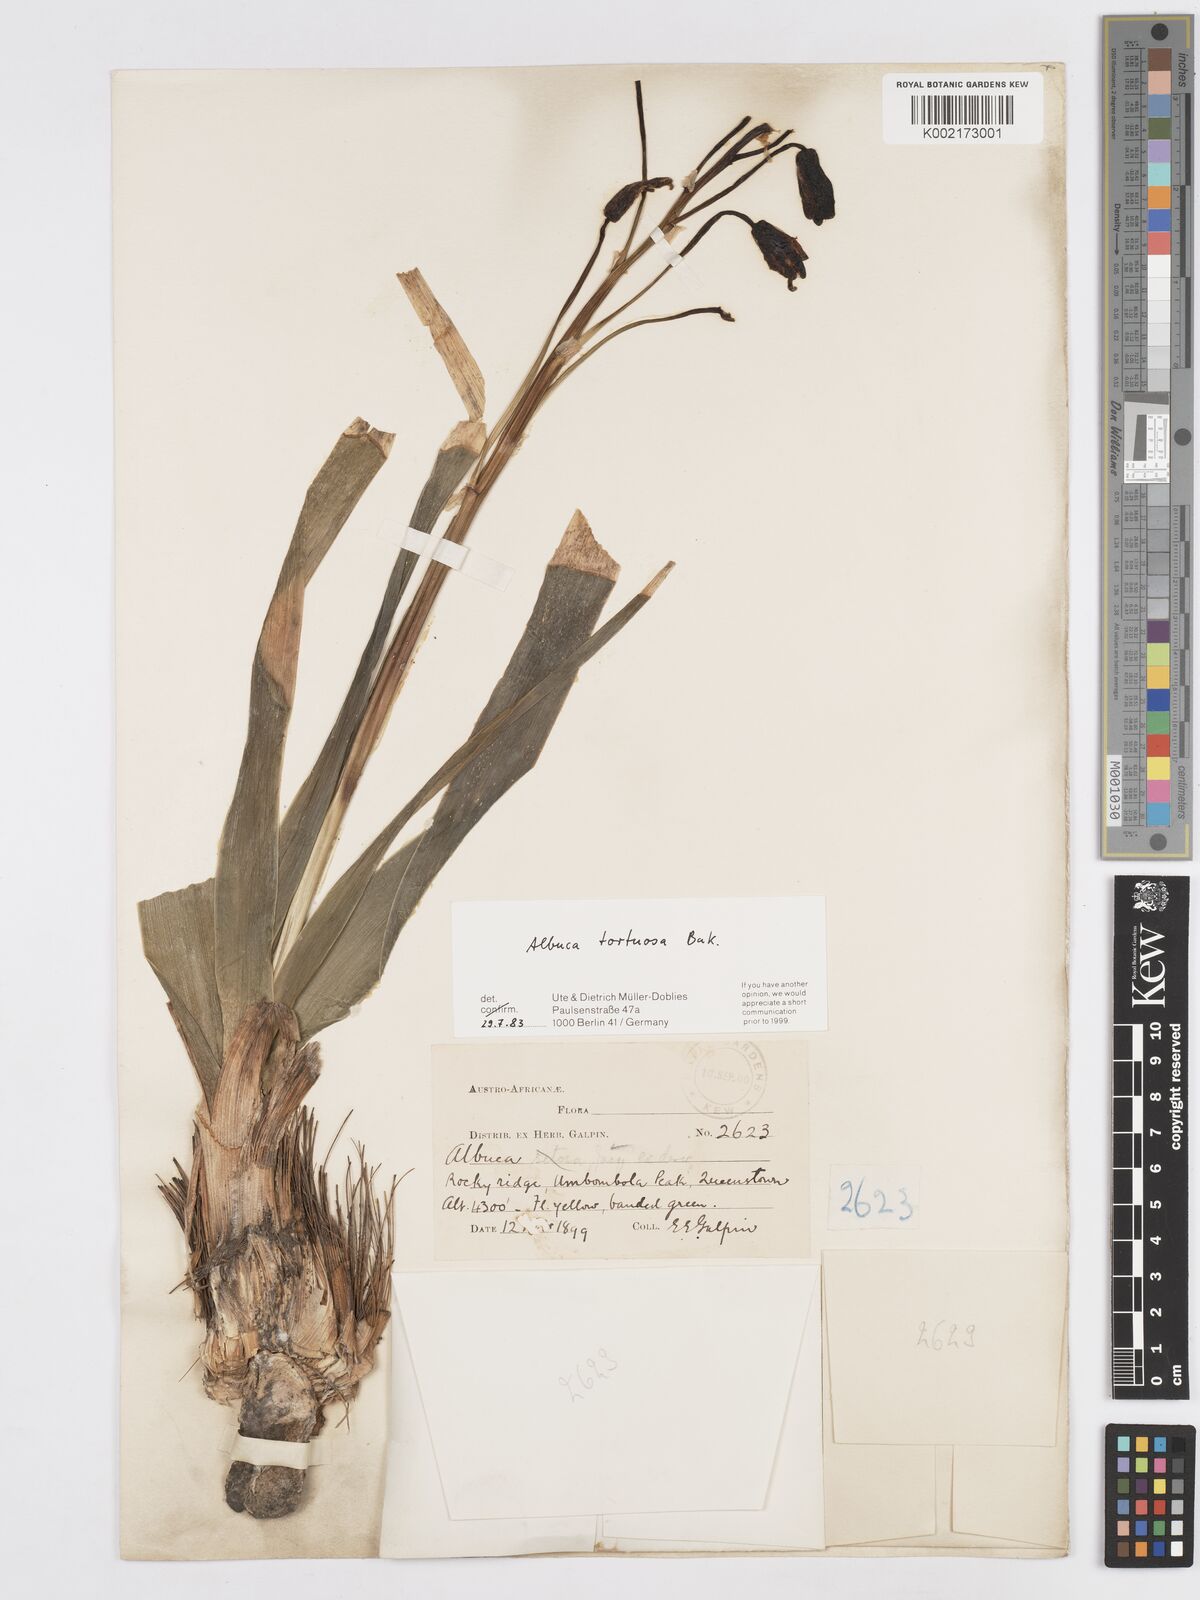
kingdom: Plantae
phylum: Tracheophyta
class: Liliopsida
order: Asparagales
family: Asparagaceae
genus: Albuca
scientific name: Albuca tortuosa
